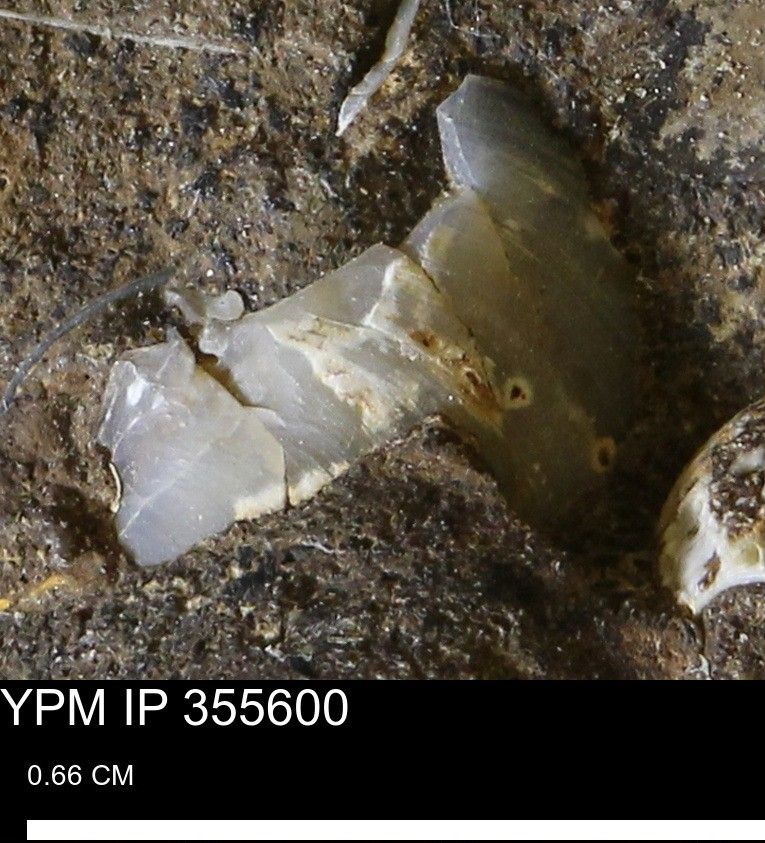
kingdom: Animalia
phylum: Mollusca
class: Bivalvia
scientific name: Bivalvia
